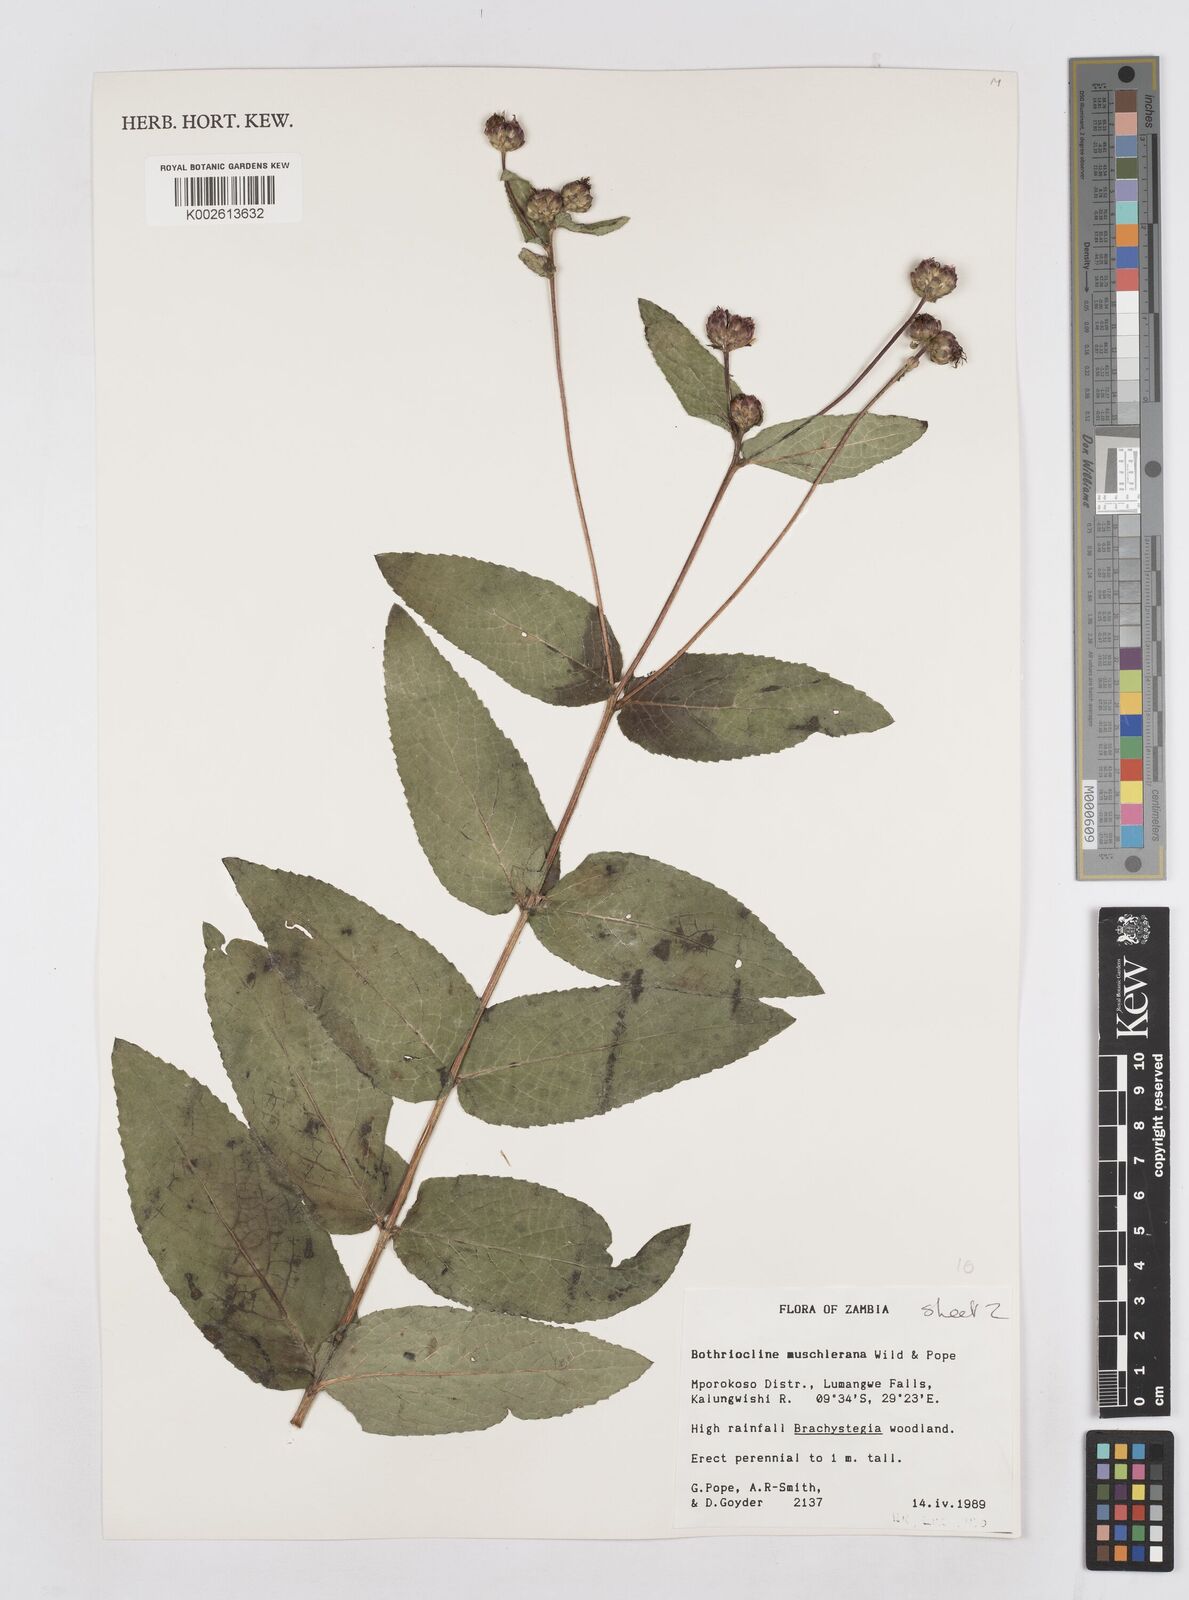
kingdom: Plantae
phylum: Tracheophyta
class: Magnoliopsida
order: Asterales
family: Asteraceae
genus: Bothriocline
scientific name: Bothriocline muschleriana
